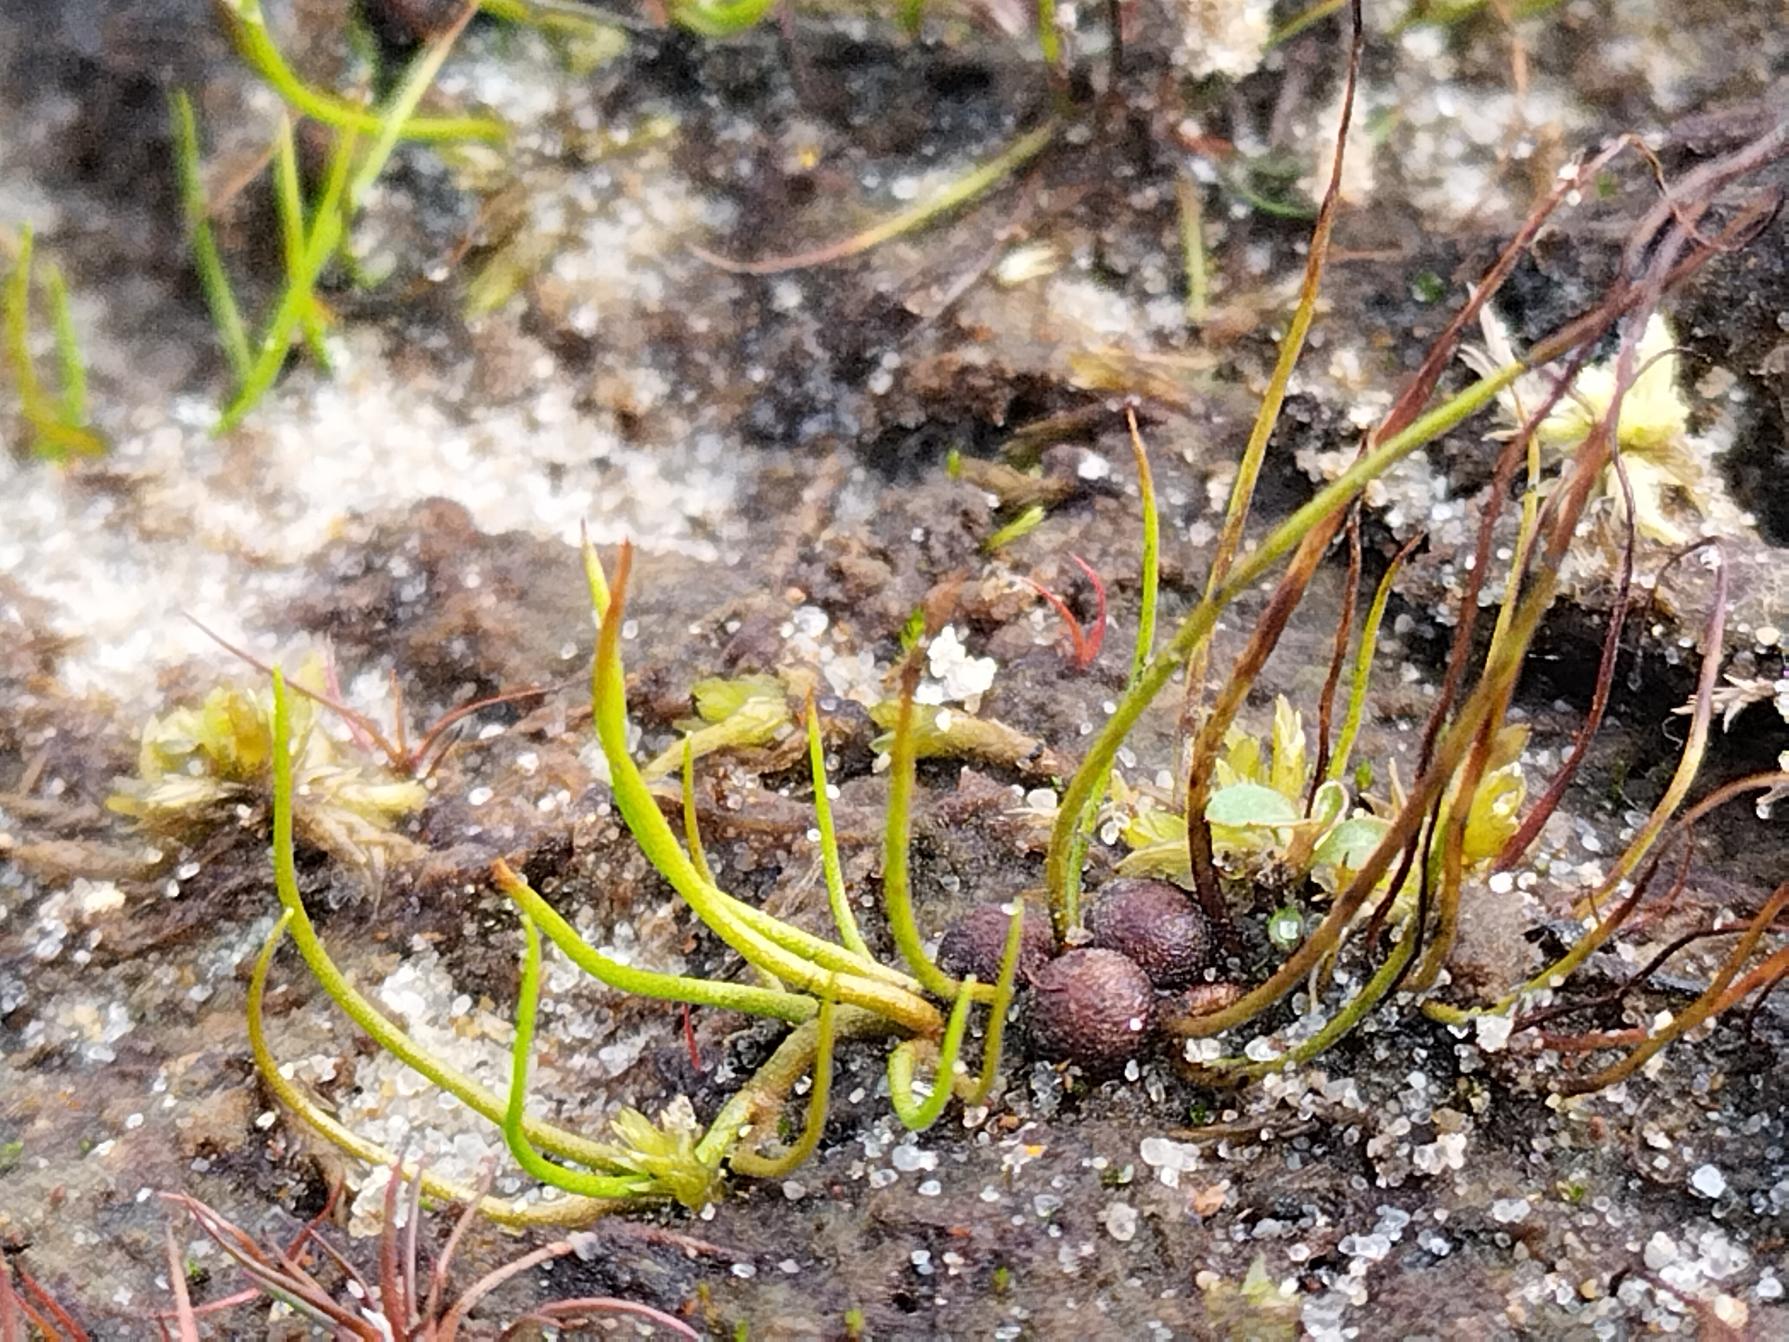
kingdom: Plantae
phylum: Tracheophyta
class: Polypodiopsida
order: Salviniales
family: Marsileaceae
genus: Pilularia
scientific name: Pilularia globulifera
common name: Pilledrager
